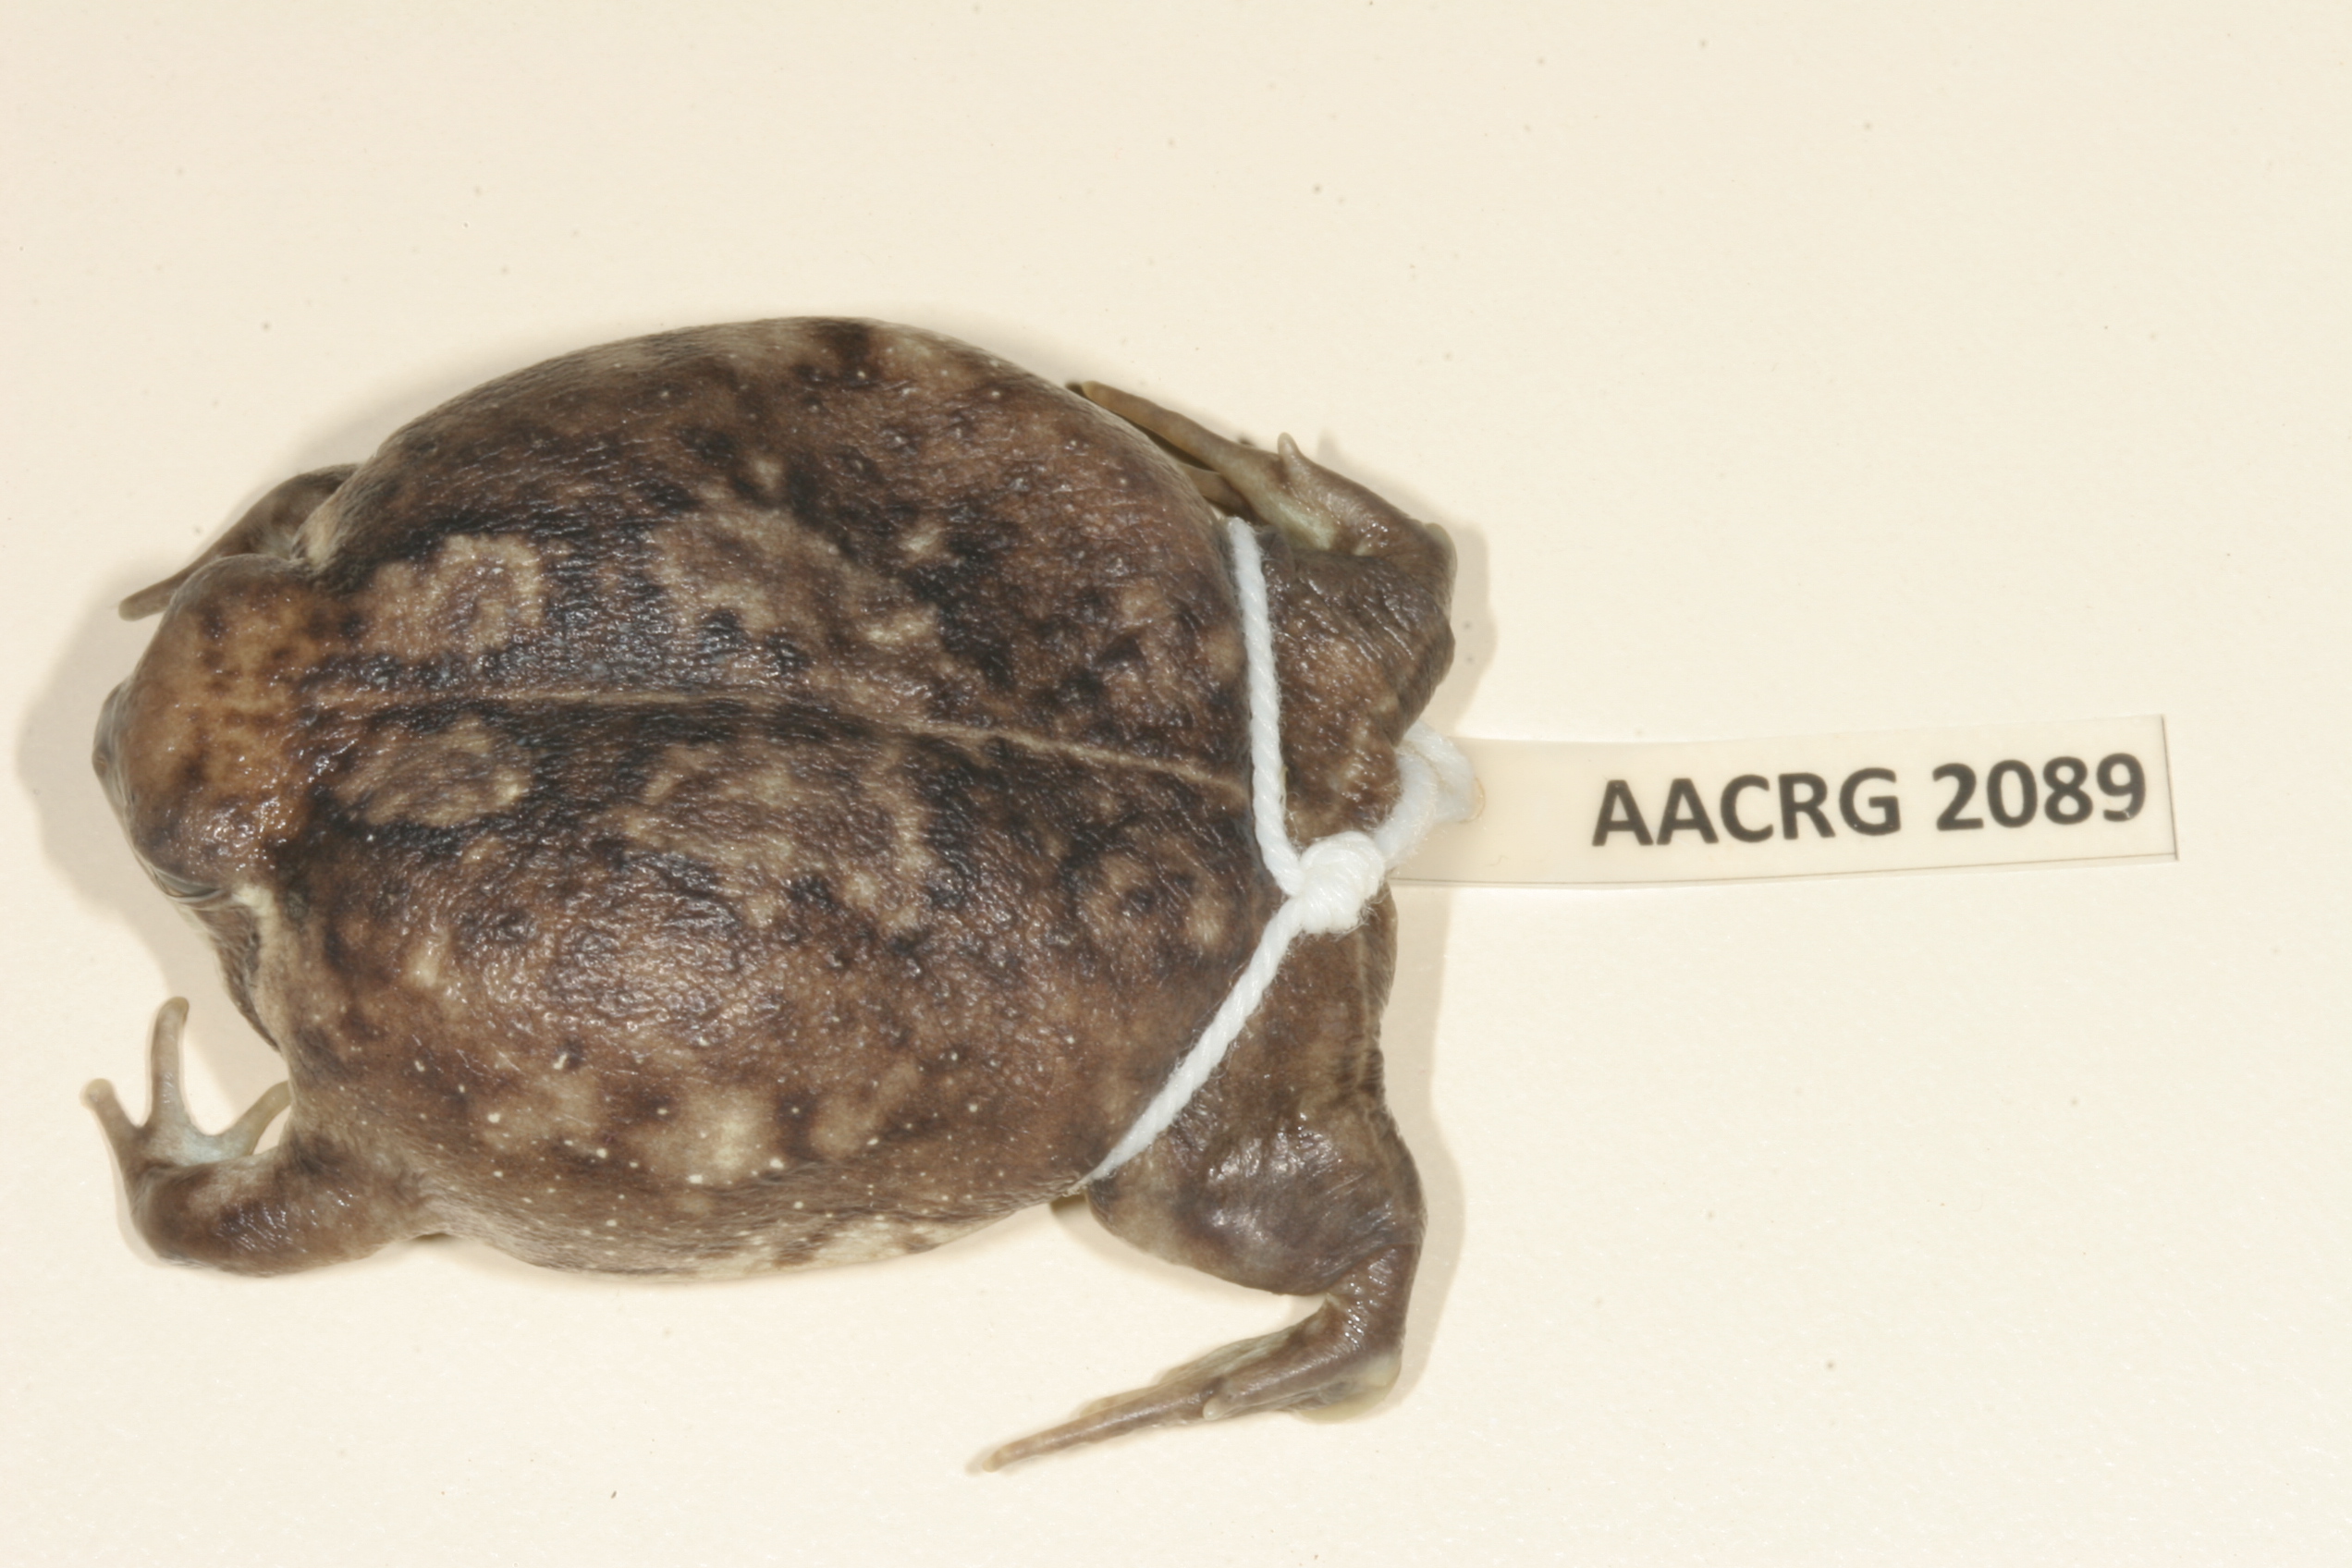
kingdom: Animalia
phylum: Chordata
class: Amphibia
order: Anura
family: Brevicipitidae
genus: Breviceps
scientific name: Breviceps adspersus
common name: Common rain frog
